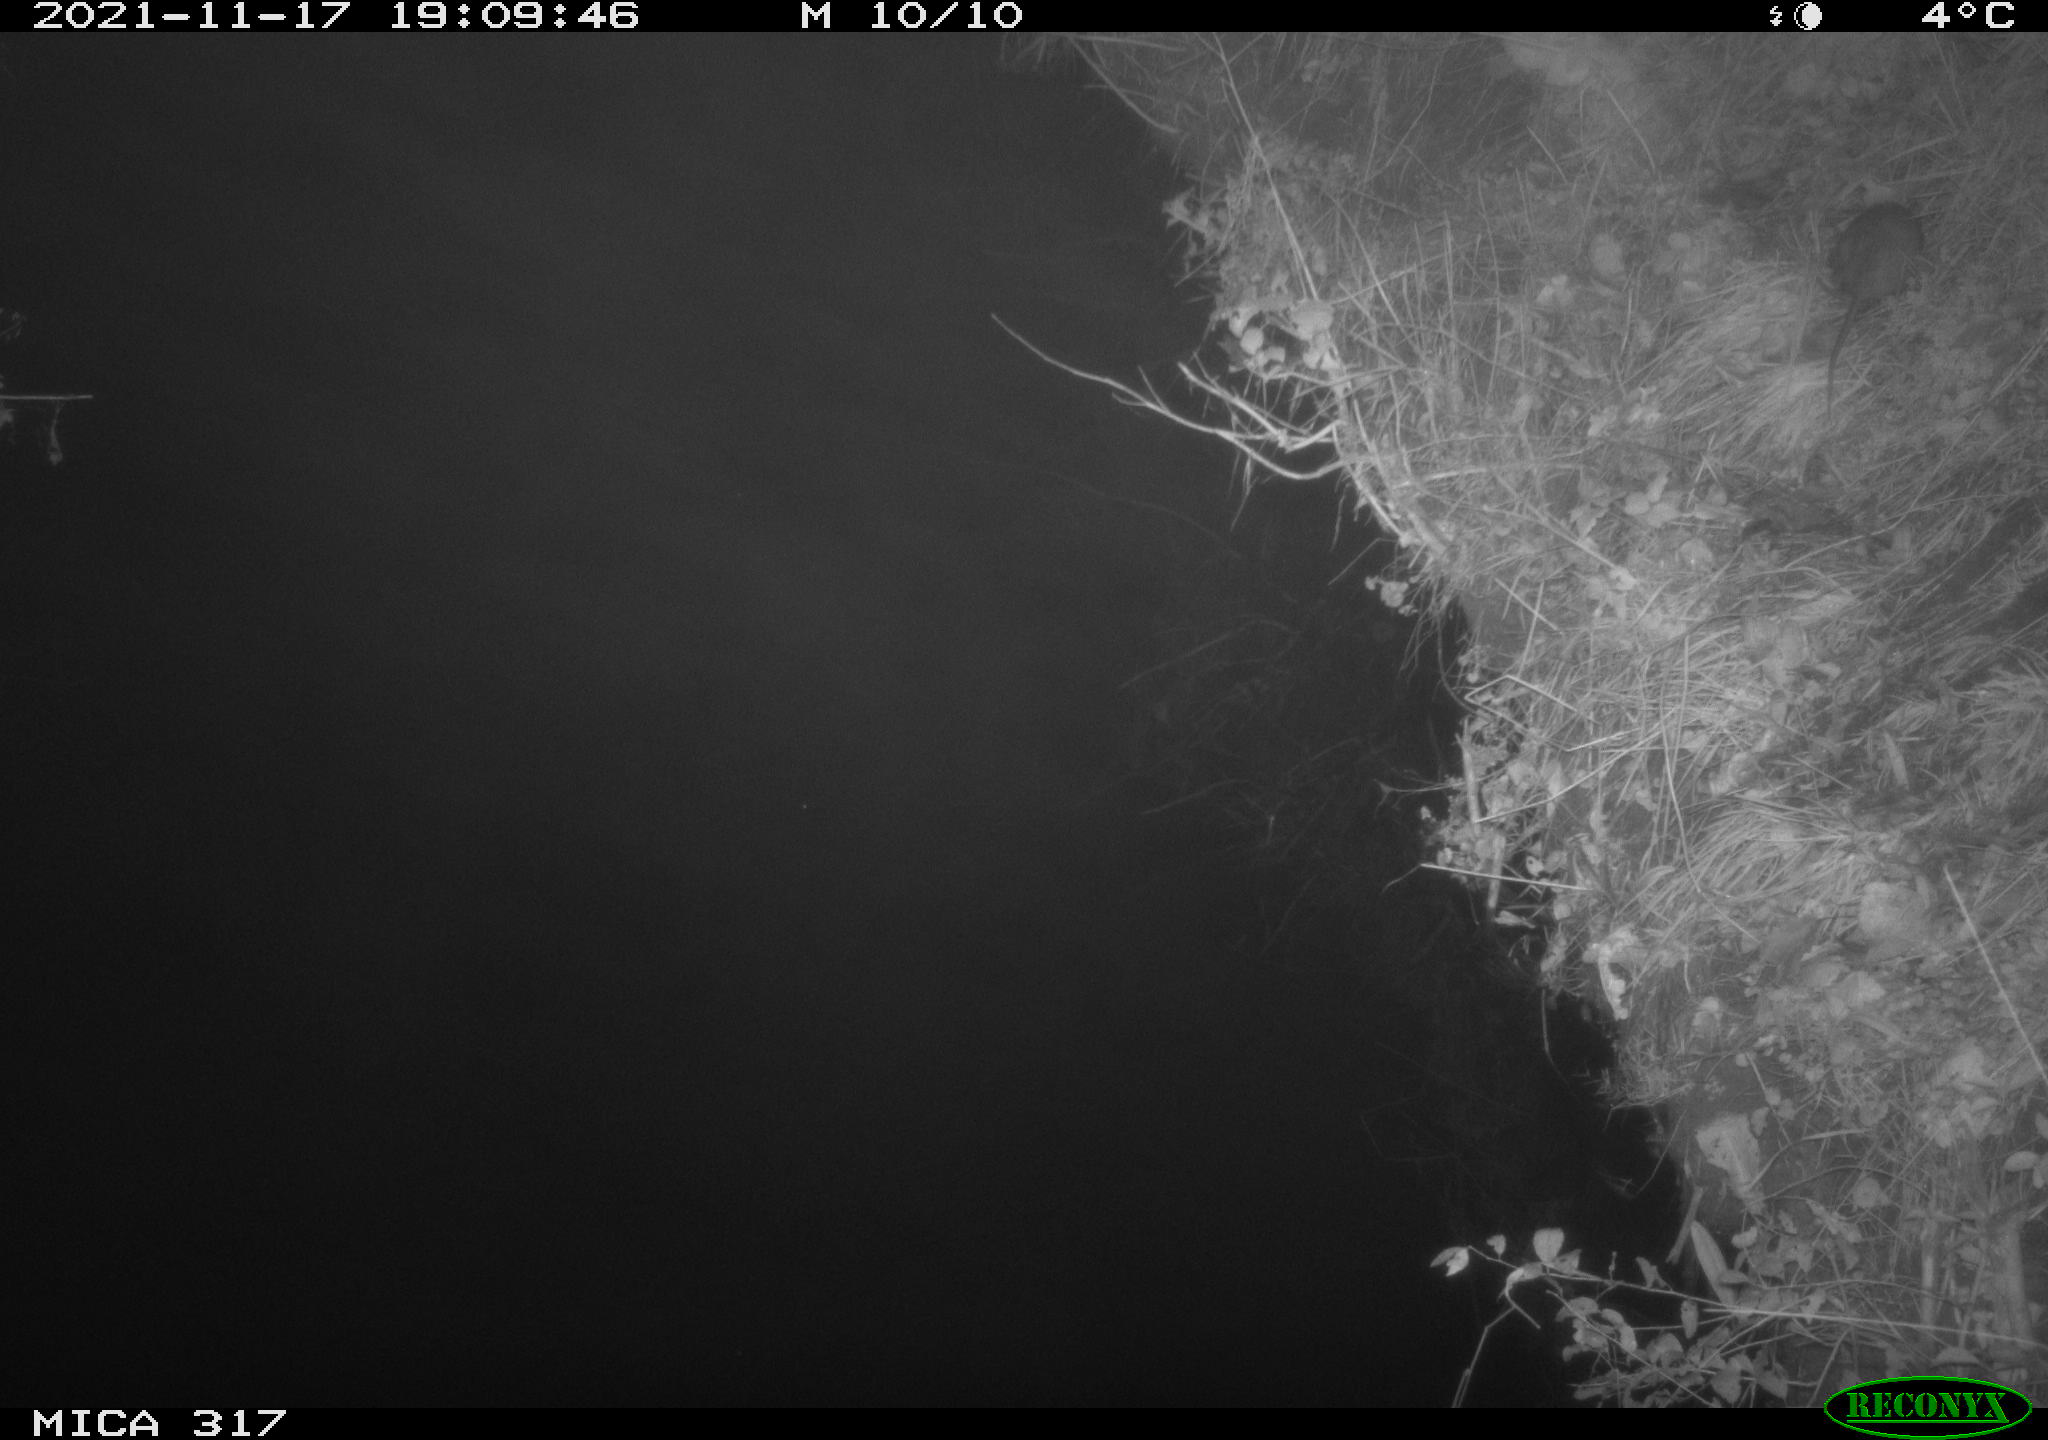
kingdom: Animalia
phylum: Chordata
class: Mammalia
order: Rodentia
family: Muridae
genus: Rattus
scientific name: Rattus norvegicus
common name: Brown rat
